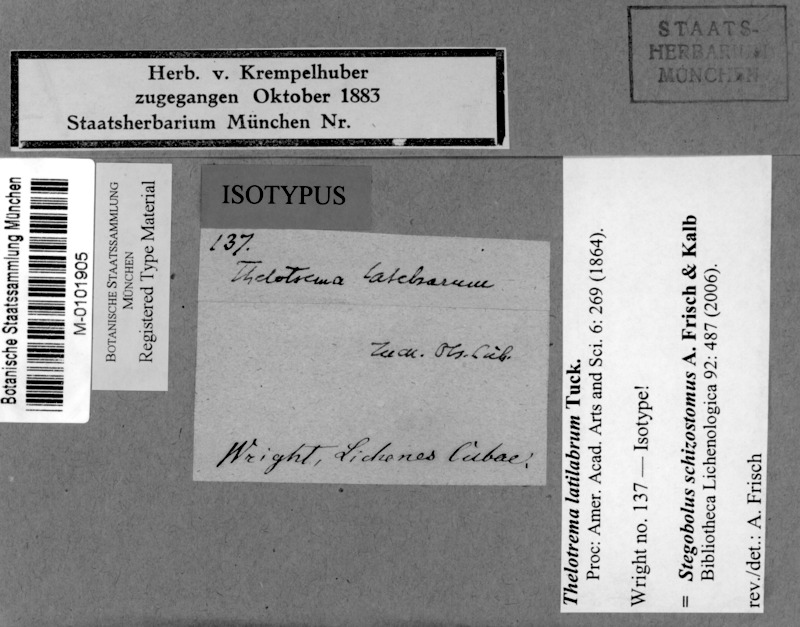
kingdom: Fungi
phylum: Ascomycota
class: Lecanoromycetes
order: Ostropales
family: Graphidaceae
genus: Stegobolus
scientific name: Stegobolus schizostomus
